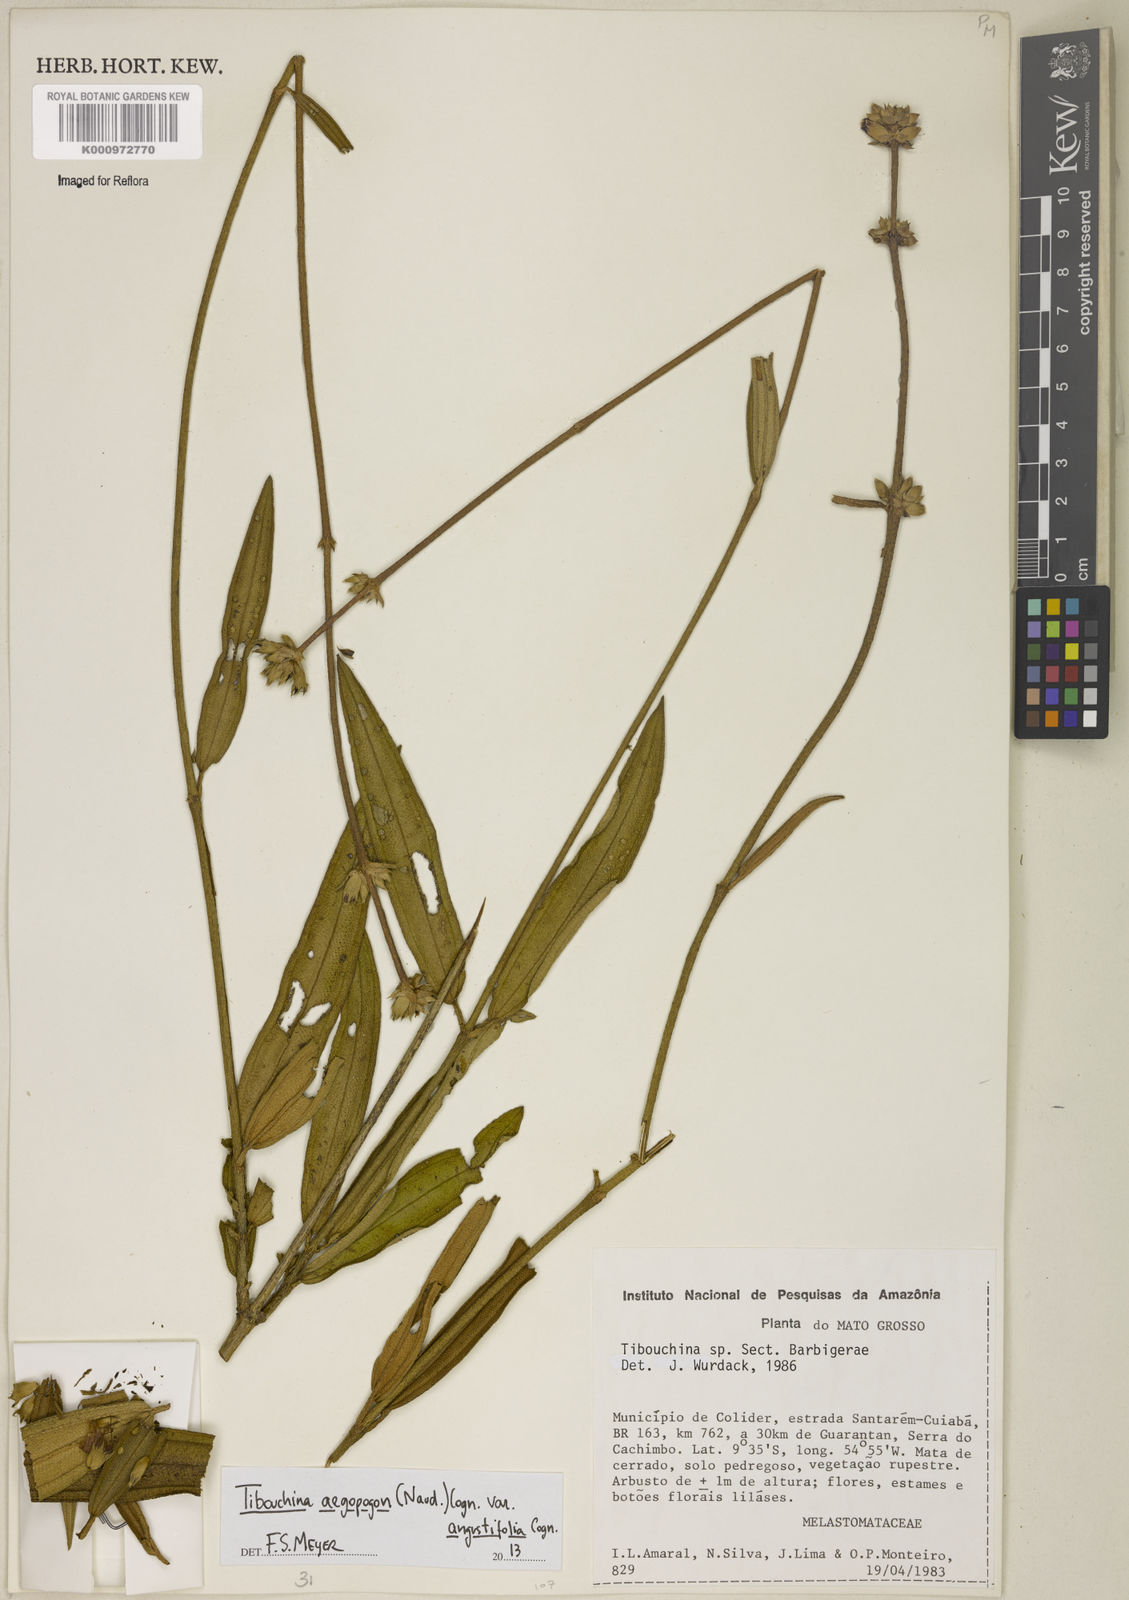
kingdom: Plantae
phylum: Tracheophyta
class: Magnoliopsida
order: Myrtales
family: Melastomataceae
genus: Pleroma
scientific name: Pleroma aegopogon
